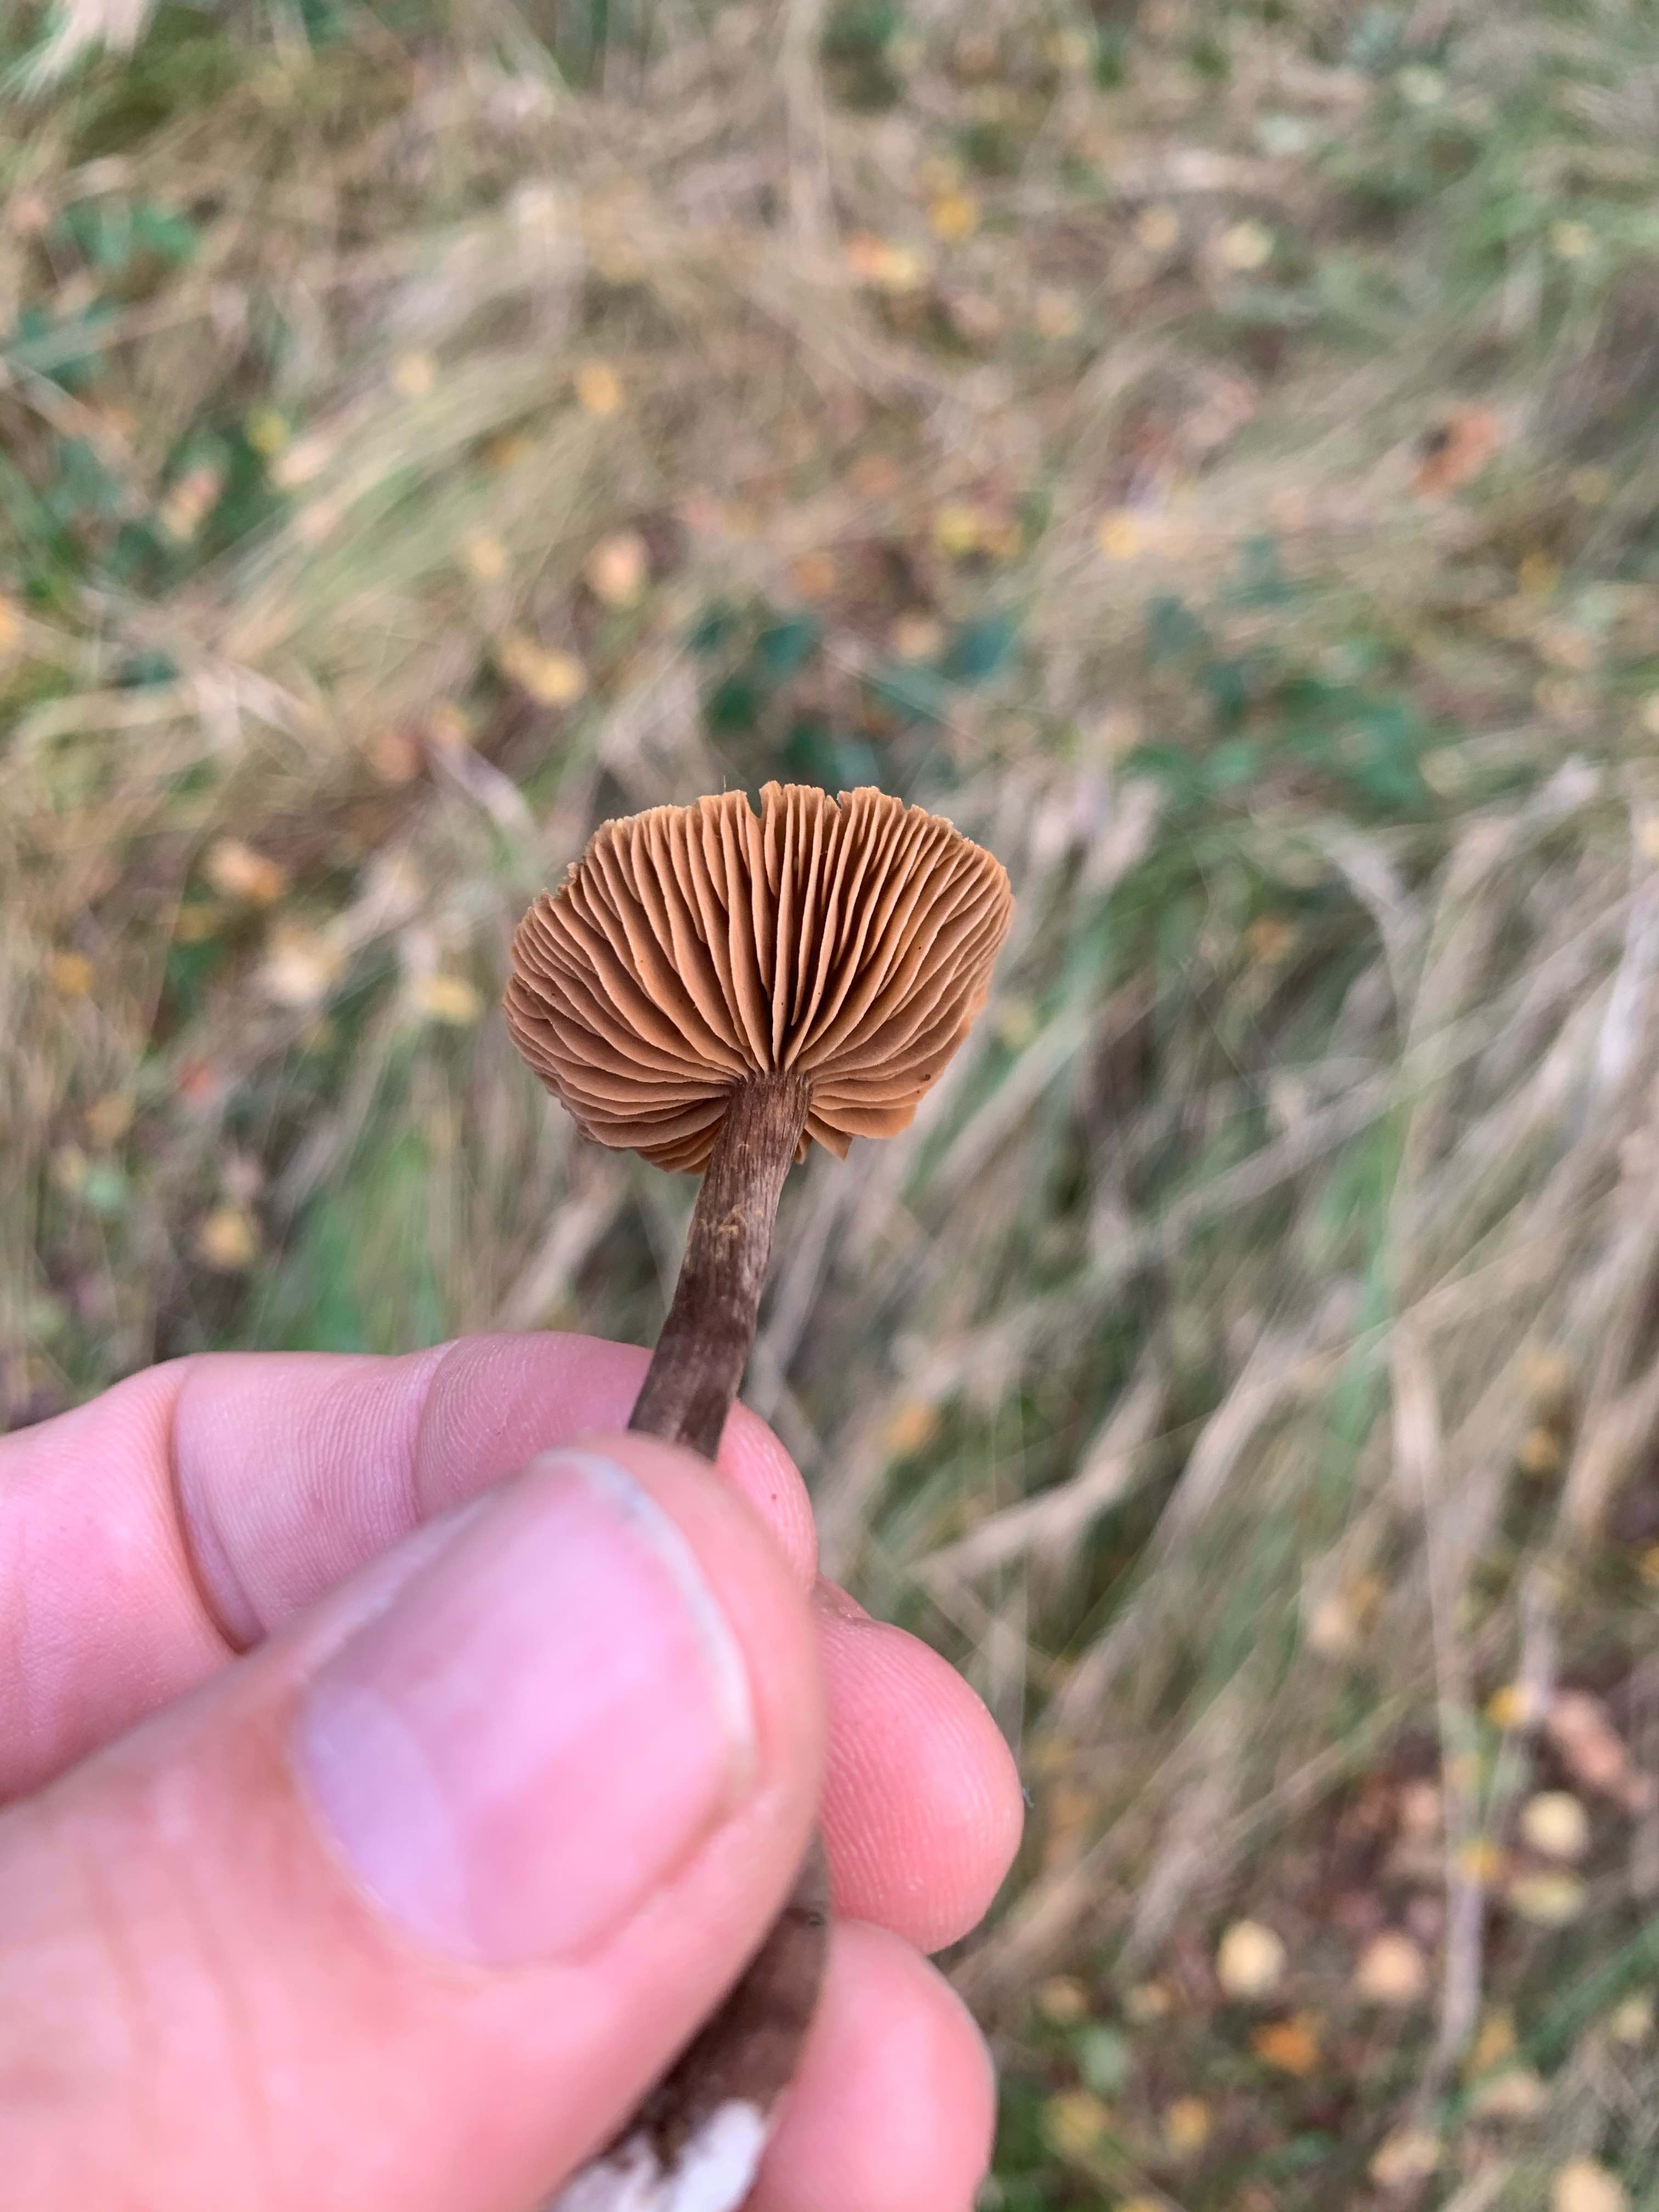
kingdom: Fungi
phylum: Basidiomycota
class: Agaricomycetes
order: Agaricales
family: Cortinariaceae
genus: Cortinarius
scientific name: Cortinarius
